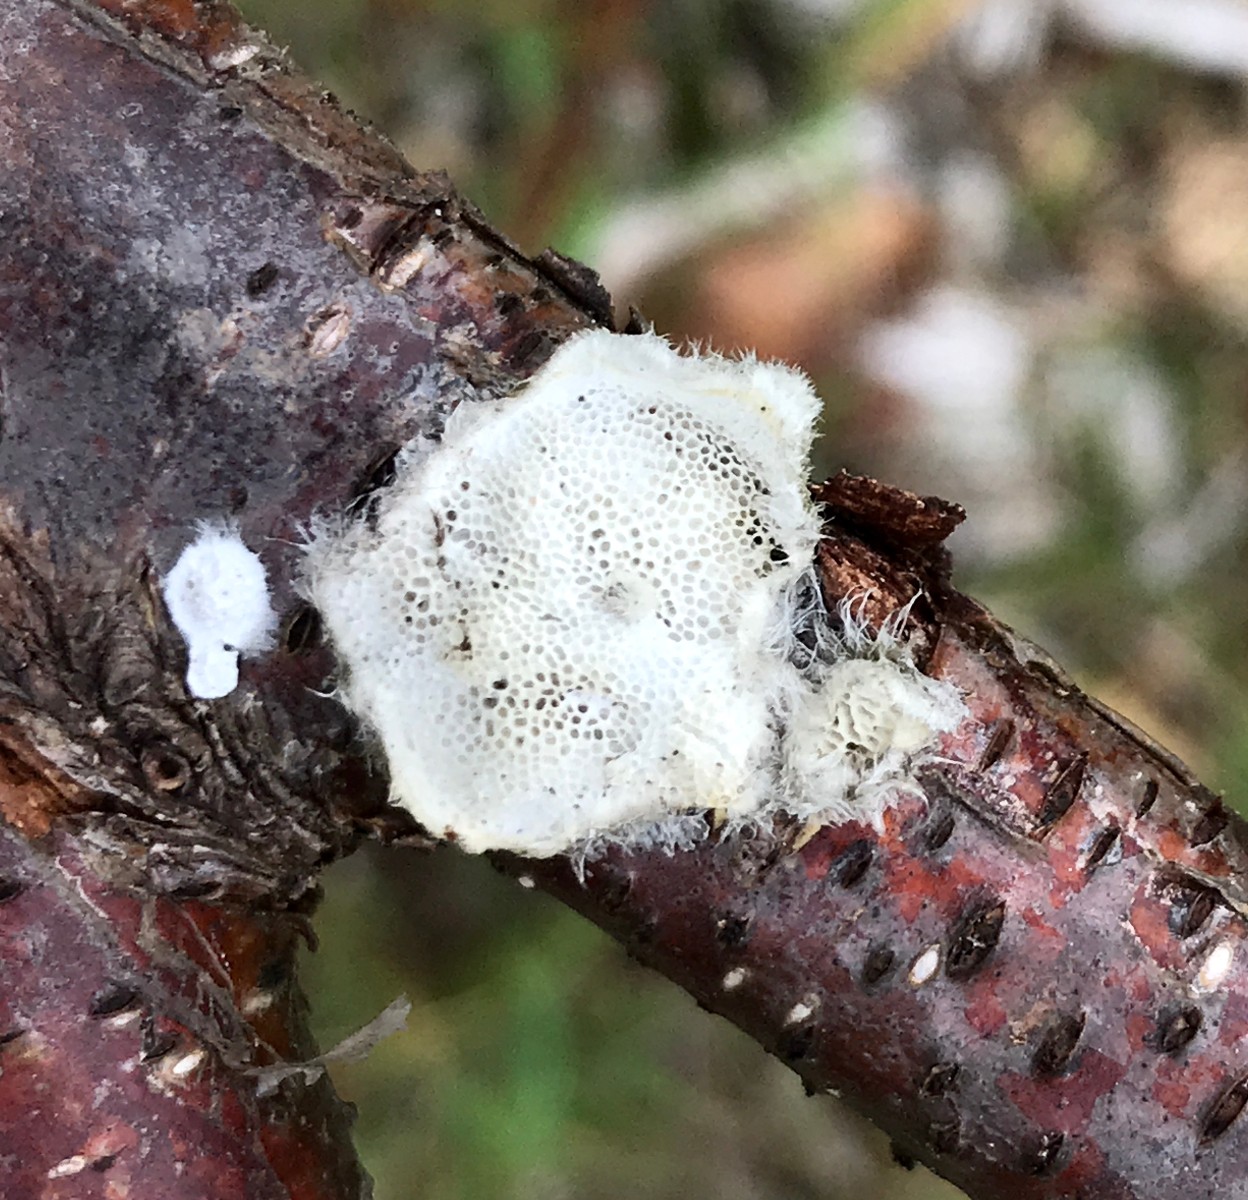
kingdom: Fungi
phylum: Basidiomycota
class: Agaricomycetes
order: Polyporales
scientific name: Polyporales
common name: poresvampordenen
